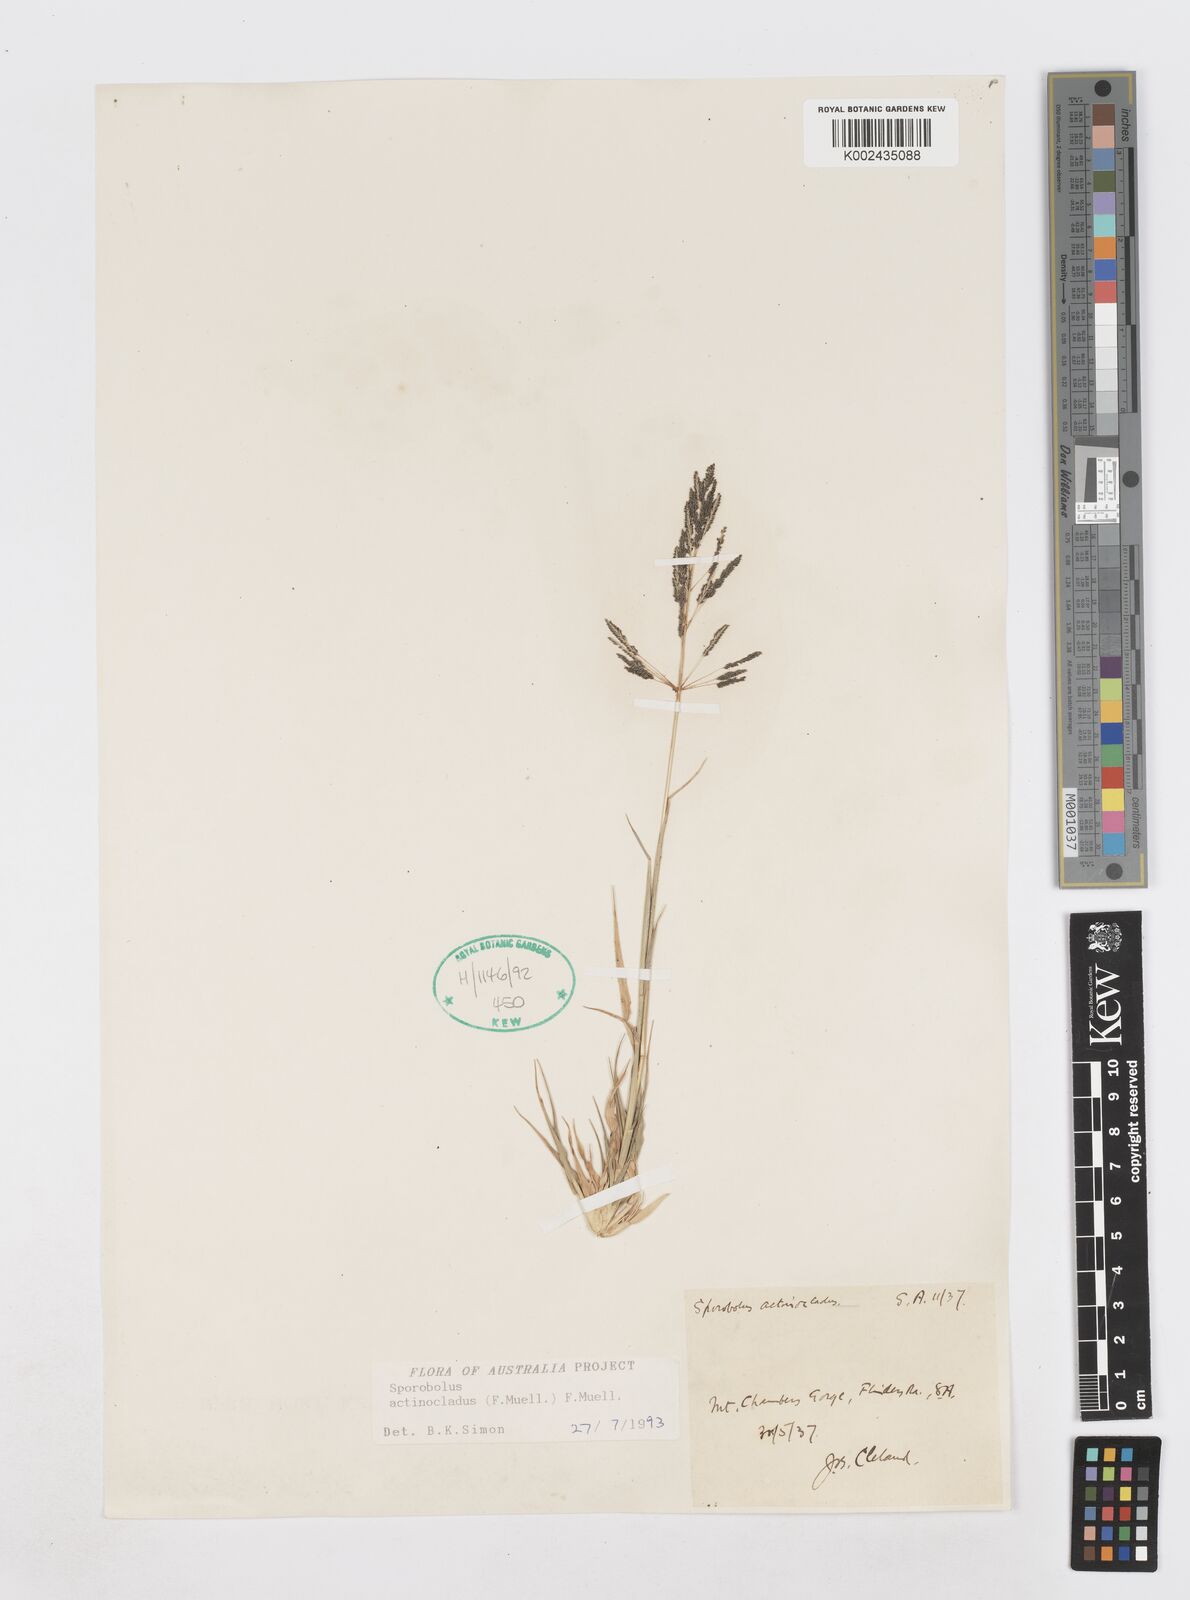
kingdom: Plantae
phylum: Tracheophyta
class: Liliopsida
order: Poales
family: Poaceae
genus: Sporobolus
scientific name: Sporobolus actinocladus
